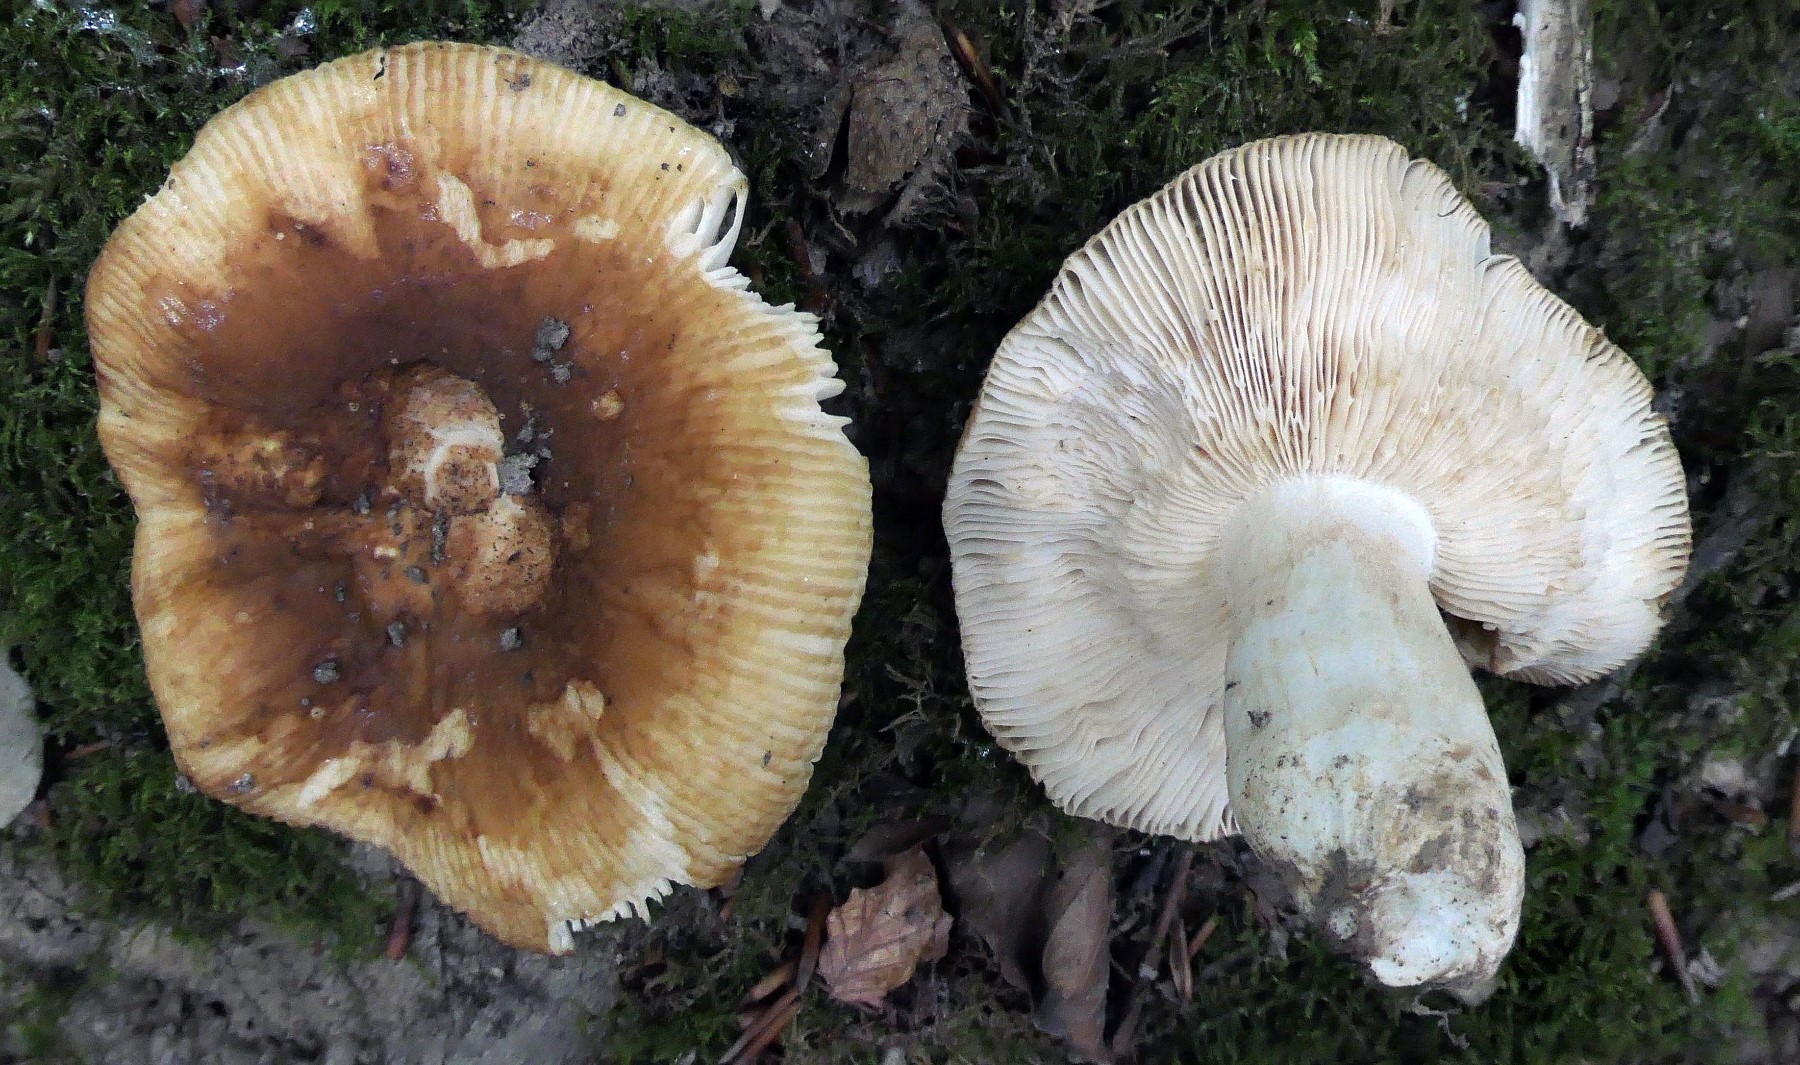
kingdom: Fungi
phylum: Basidiomycota
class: Agaricomycetes
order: Russulales
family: Russulaceae
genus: Russula
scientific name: Russula foetens
